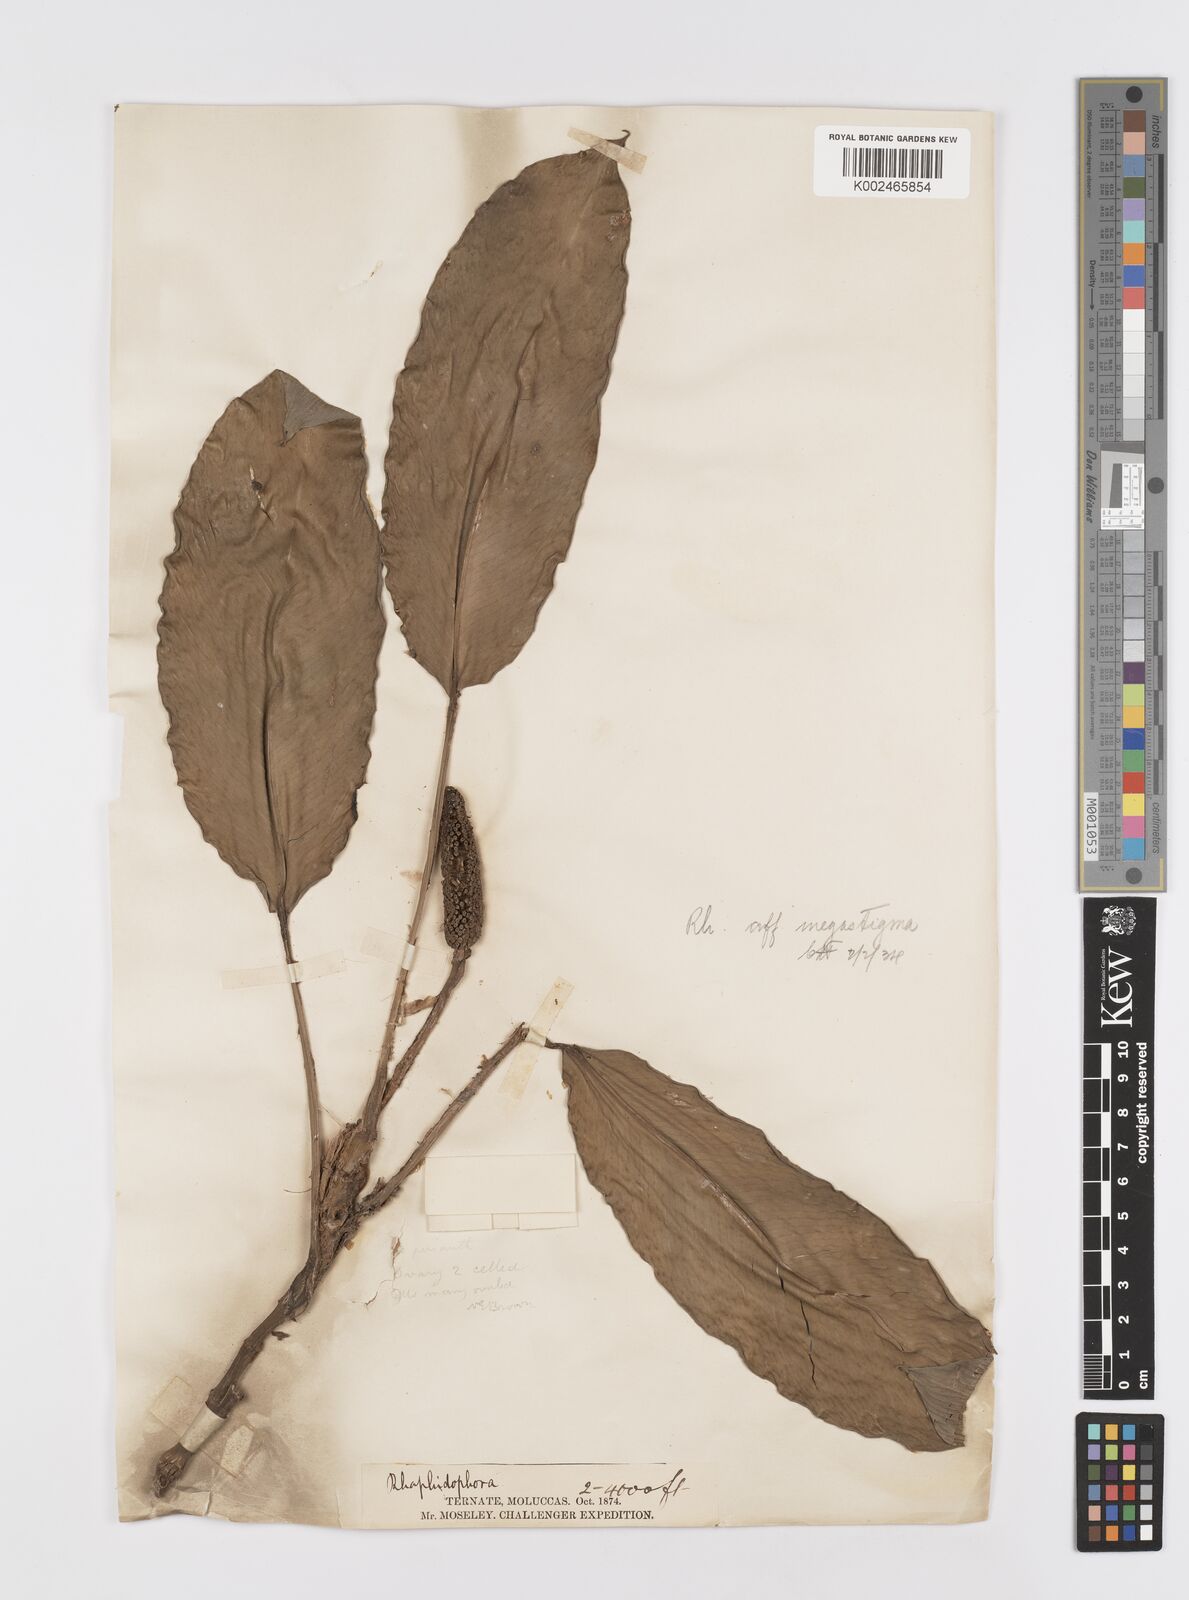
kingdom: Plantae
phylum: Tracheophyta
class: Liliopsida
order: Alismatales
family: Araceae
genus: Rhaphidophora
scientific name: Rhaphidophora oligosperma
